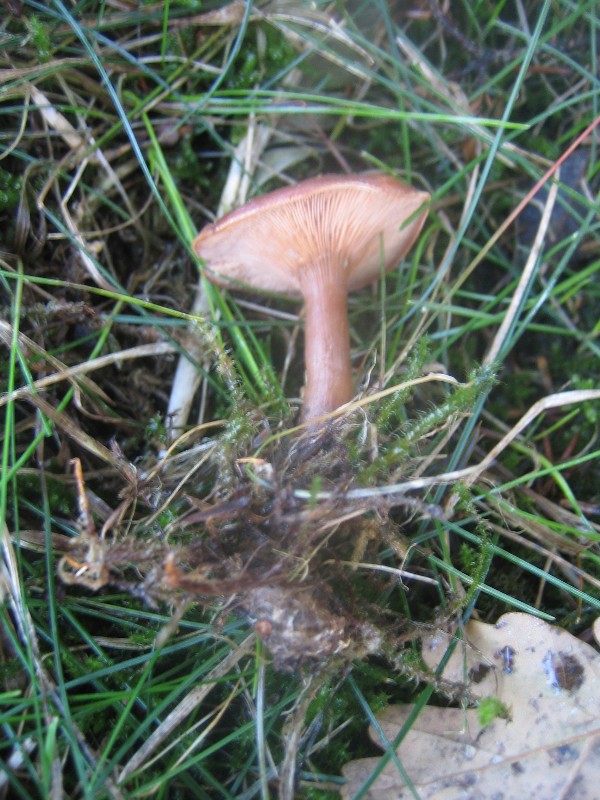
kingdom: Fungi
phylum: Basidiomycota
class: Agaricomycetes
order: Agaricales
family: Tricholomataceae
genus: Paralepista
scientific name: Paralepista flaccida
